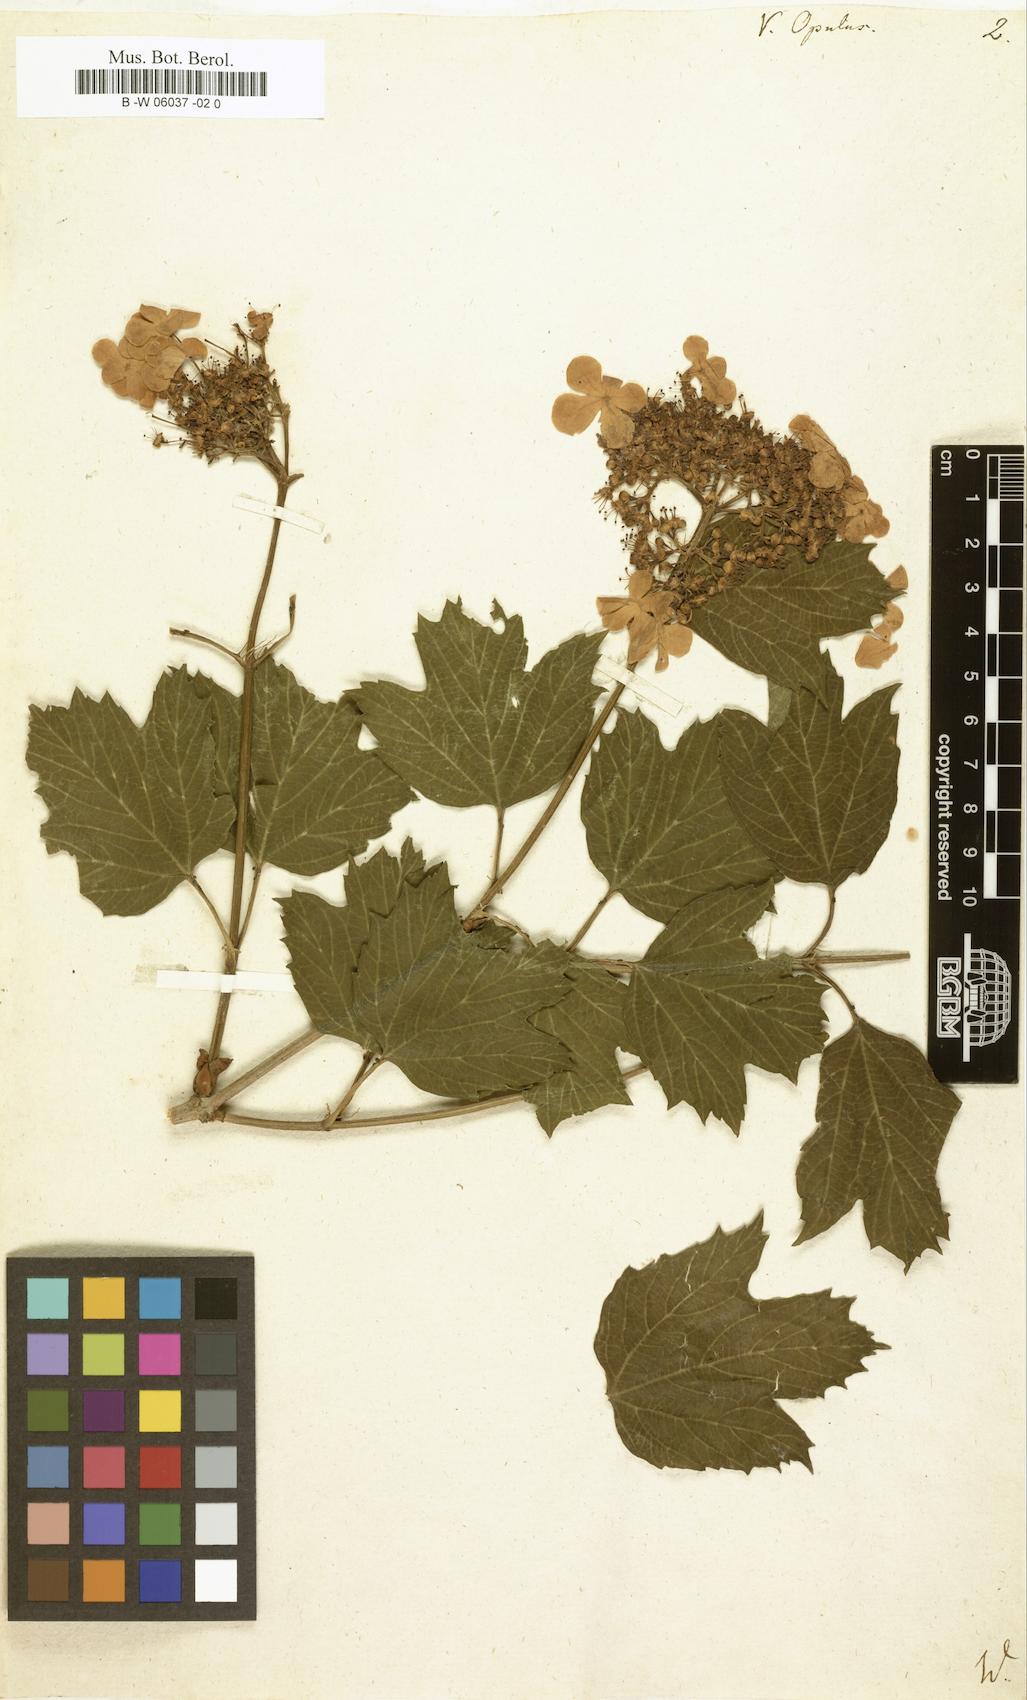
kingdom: Plantae
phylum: Tracheophyta
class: Magnoliopsida
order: Dipsacales
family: Viburnaceae
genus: Viburnum
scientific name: Viburnum opulus
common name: Guelder-rose
